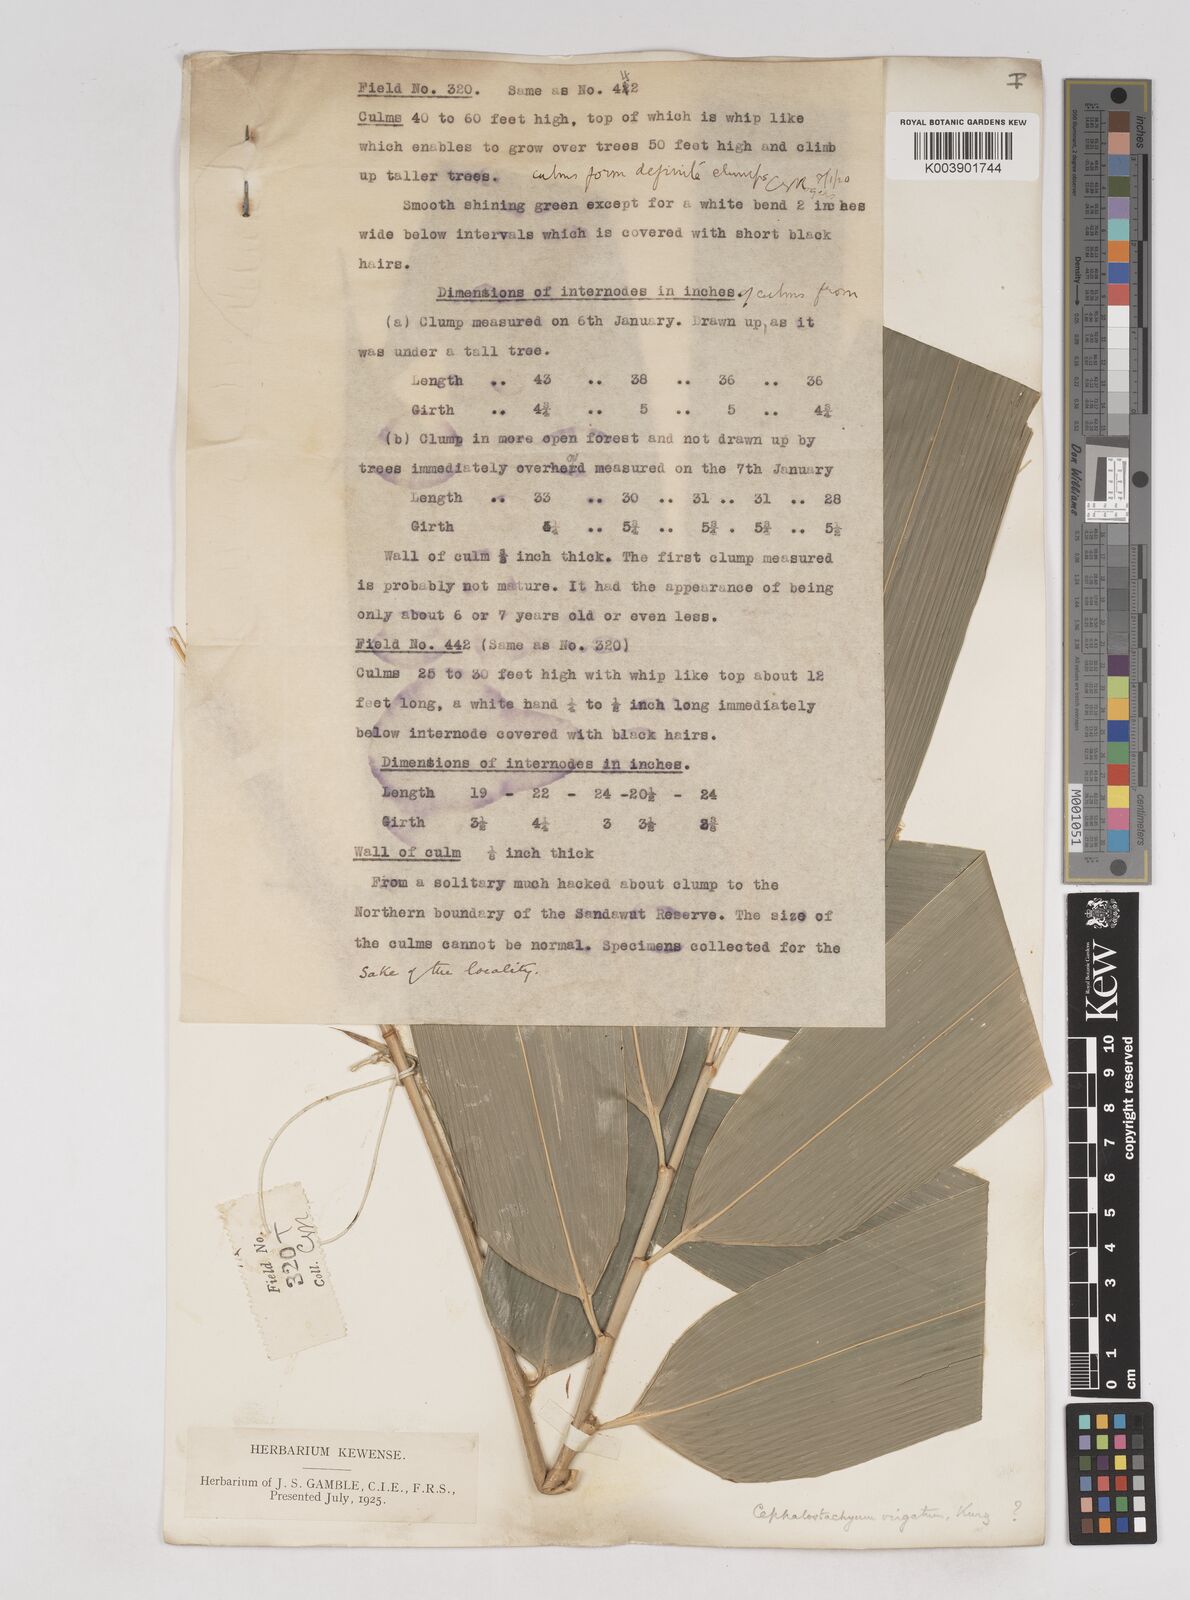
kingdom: Plantae
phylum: Tracheophyta
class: Liliopsida
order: Poales
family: Poaceae
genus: Schizostachyum
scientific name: Schizostachyum dullooa
